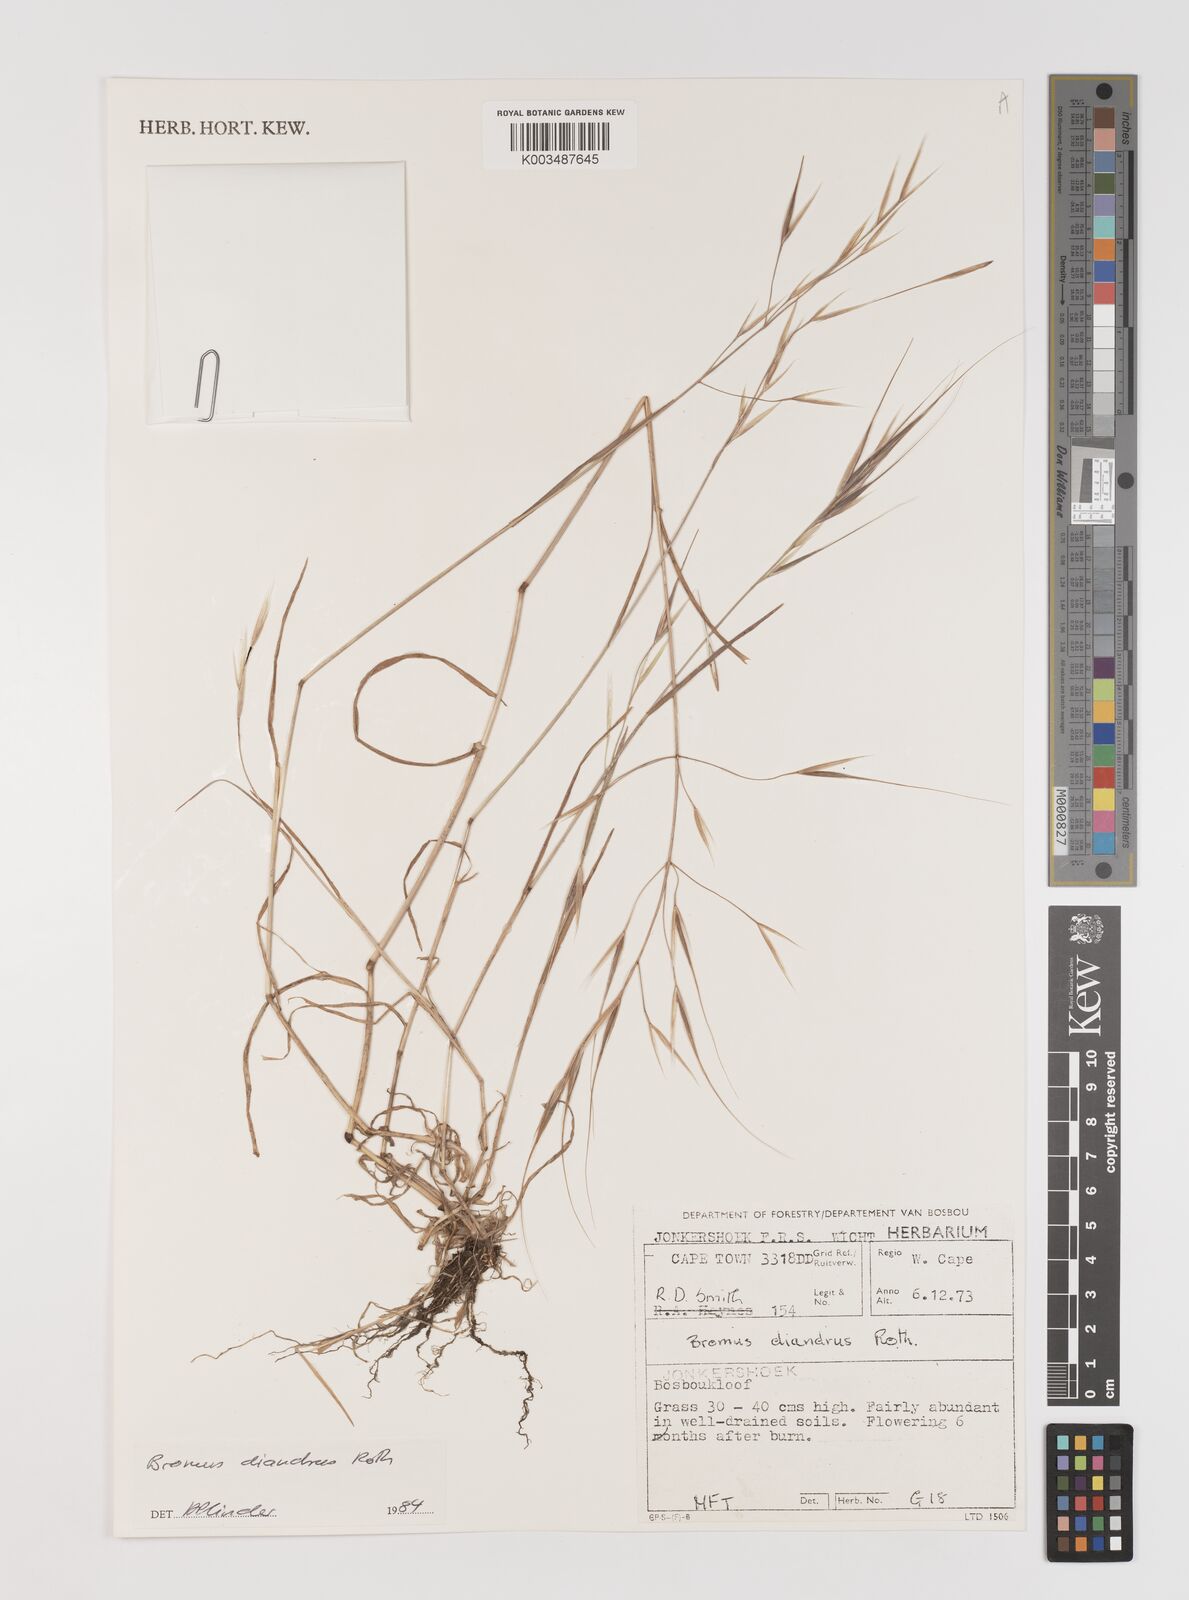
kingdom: Plantae
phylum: Tracheophyta
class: Liliopsida
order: Poales
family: Poaceae
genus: Bromus
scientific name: Bromus diandrus
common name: Ripgut brome
